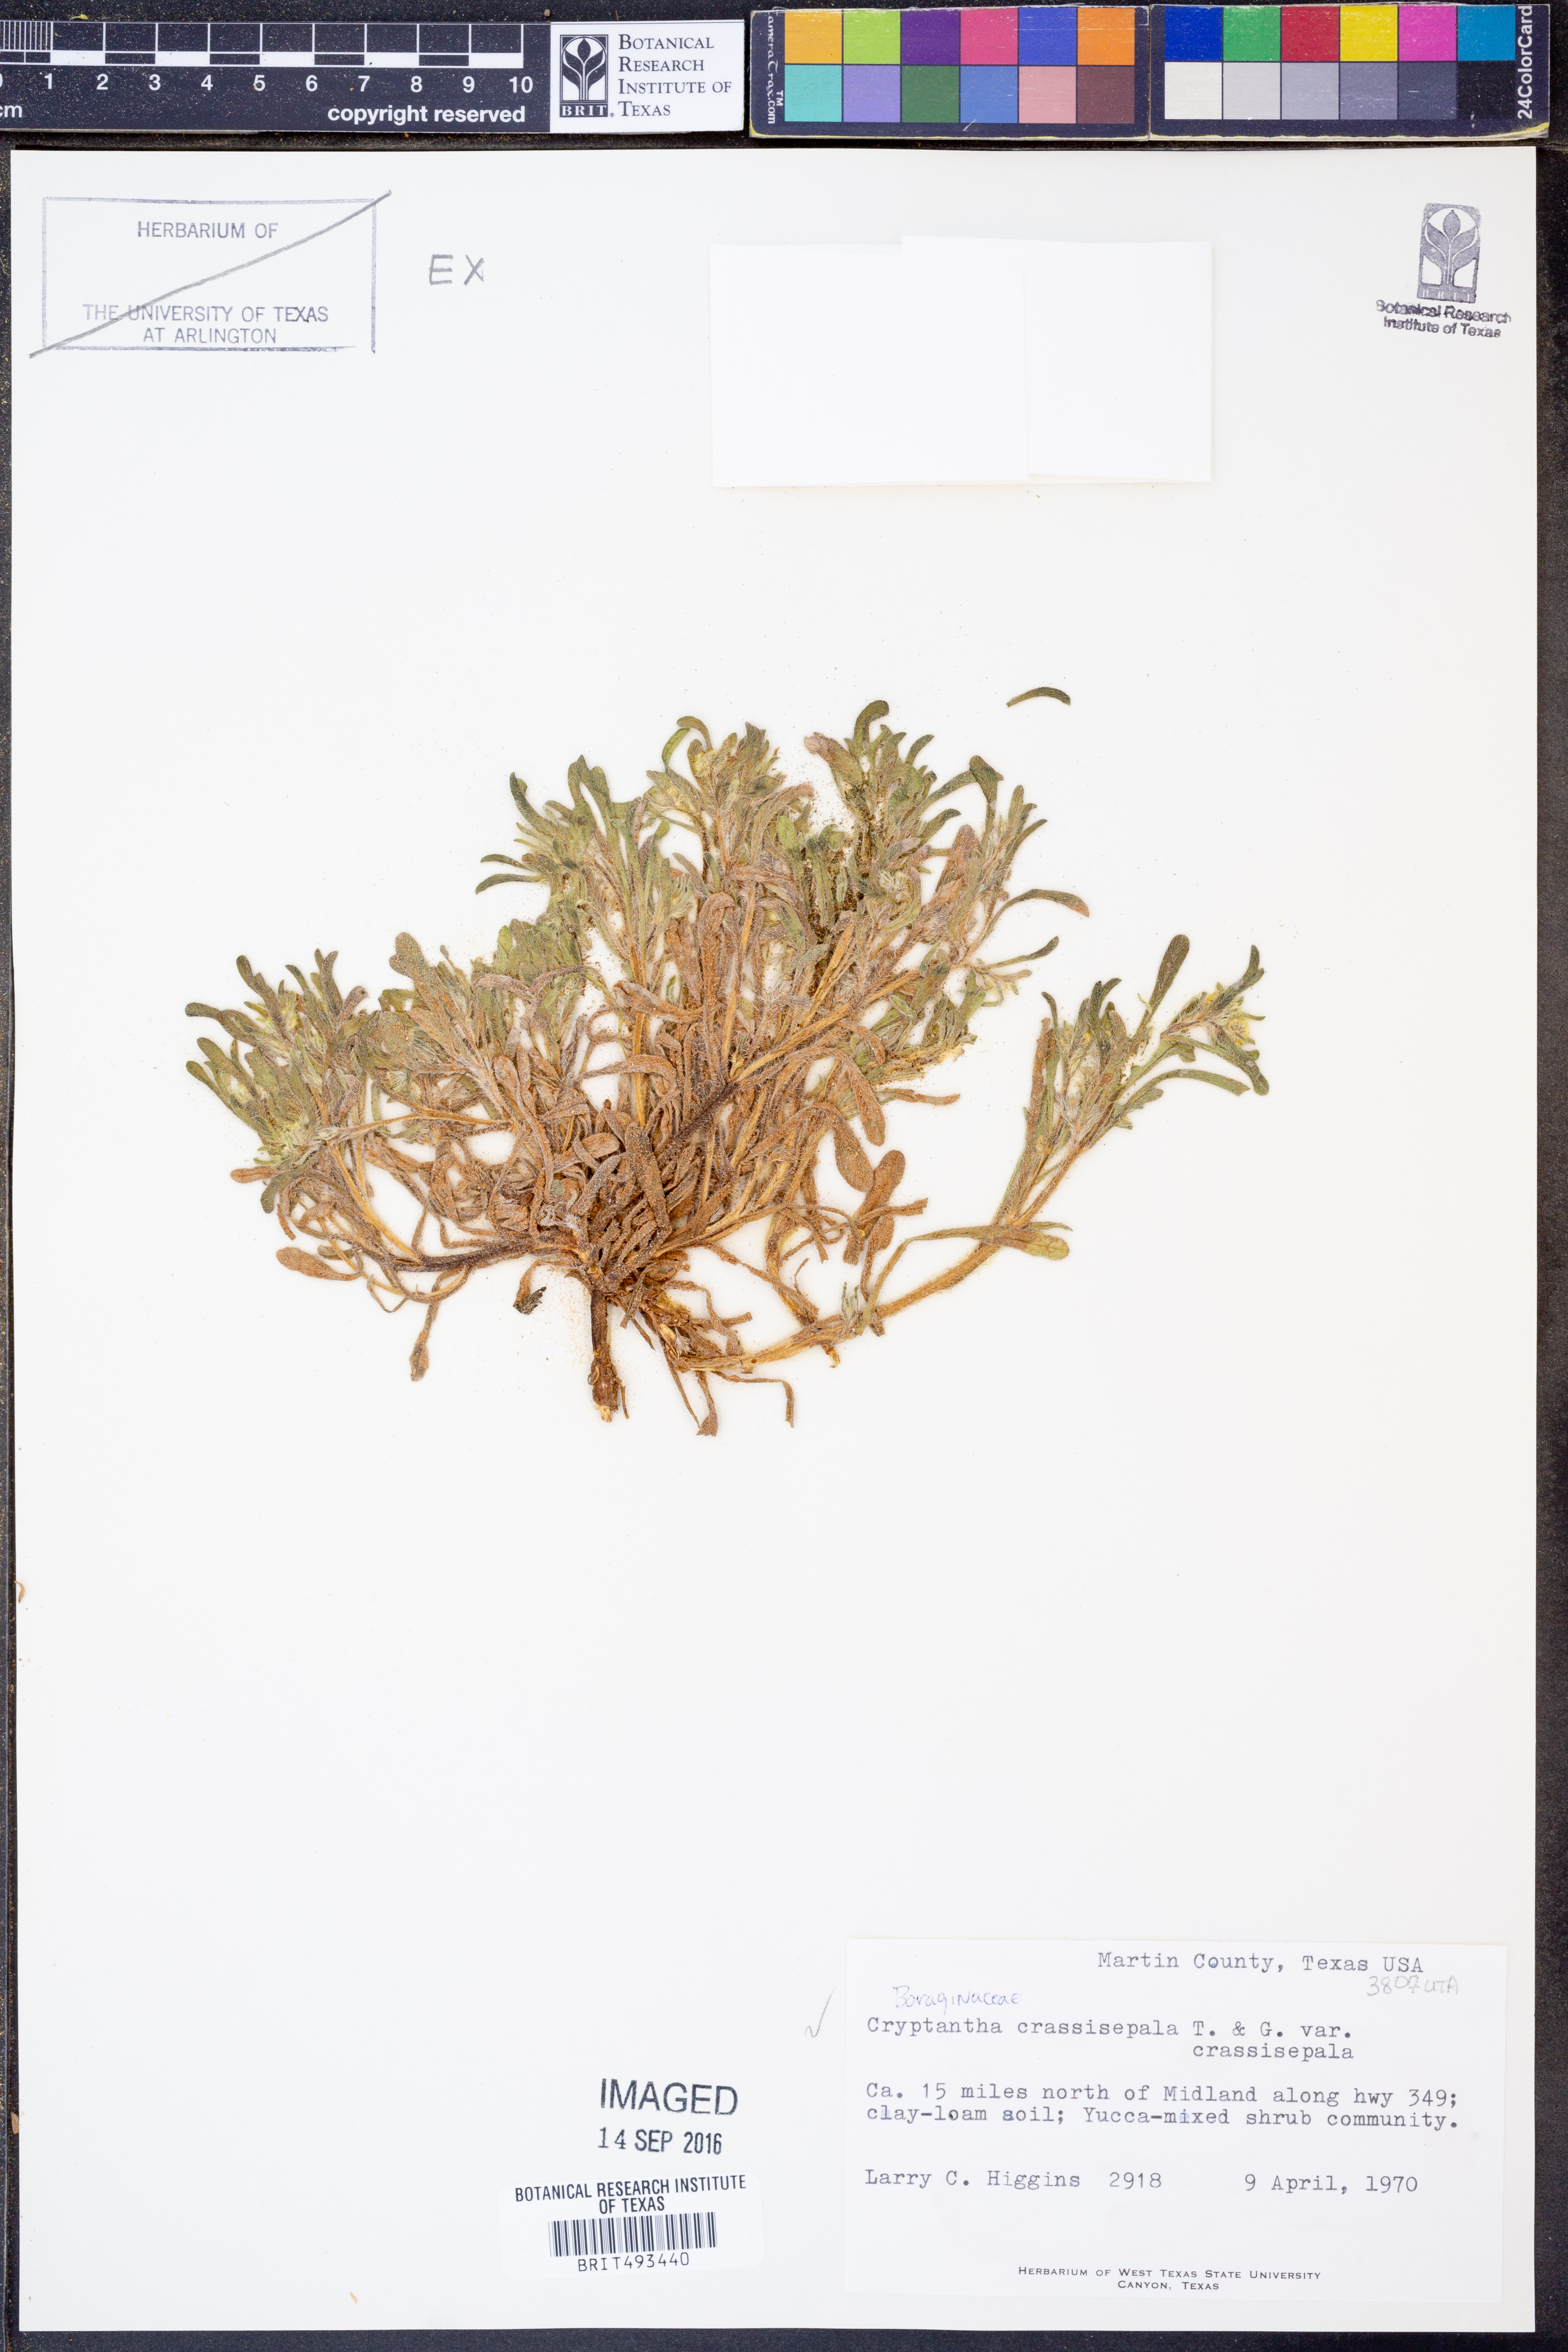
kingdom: Plantae
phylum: Tracheophyta
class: Magnoliopsida
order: Boraginales
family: Boraginaceae
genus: Cryptantha
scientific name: Cryptantha crassisepala
